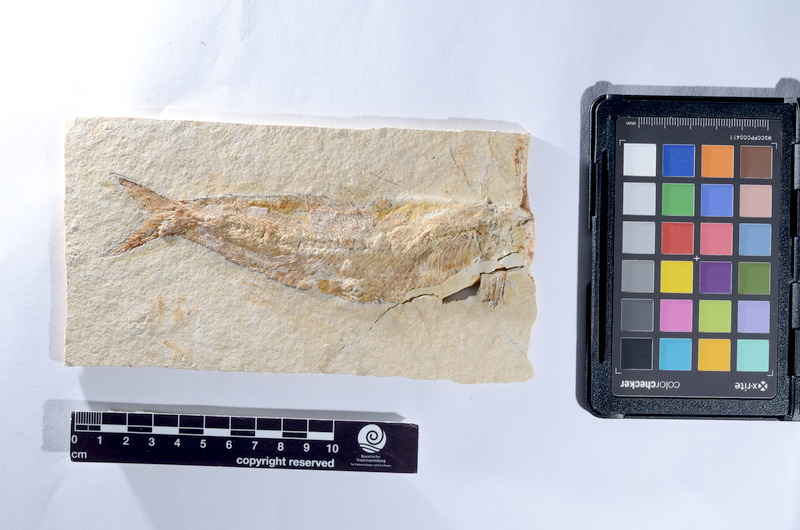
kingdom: Animalia
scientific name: Animalia
